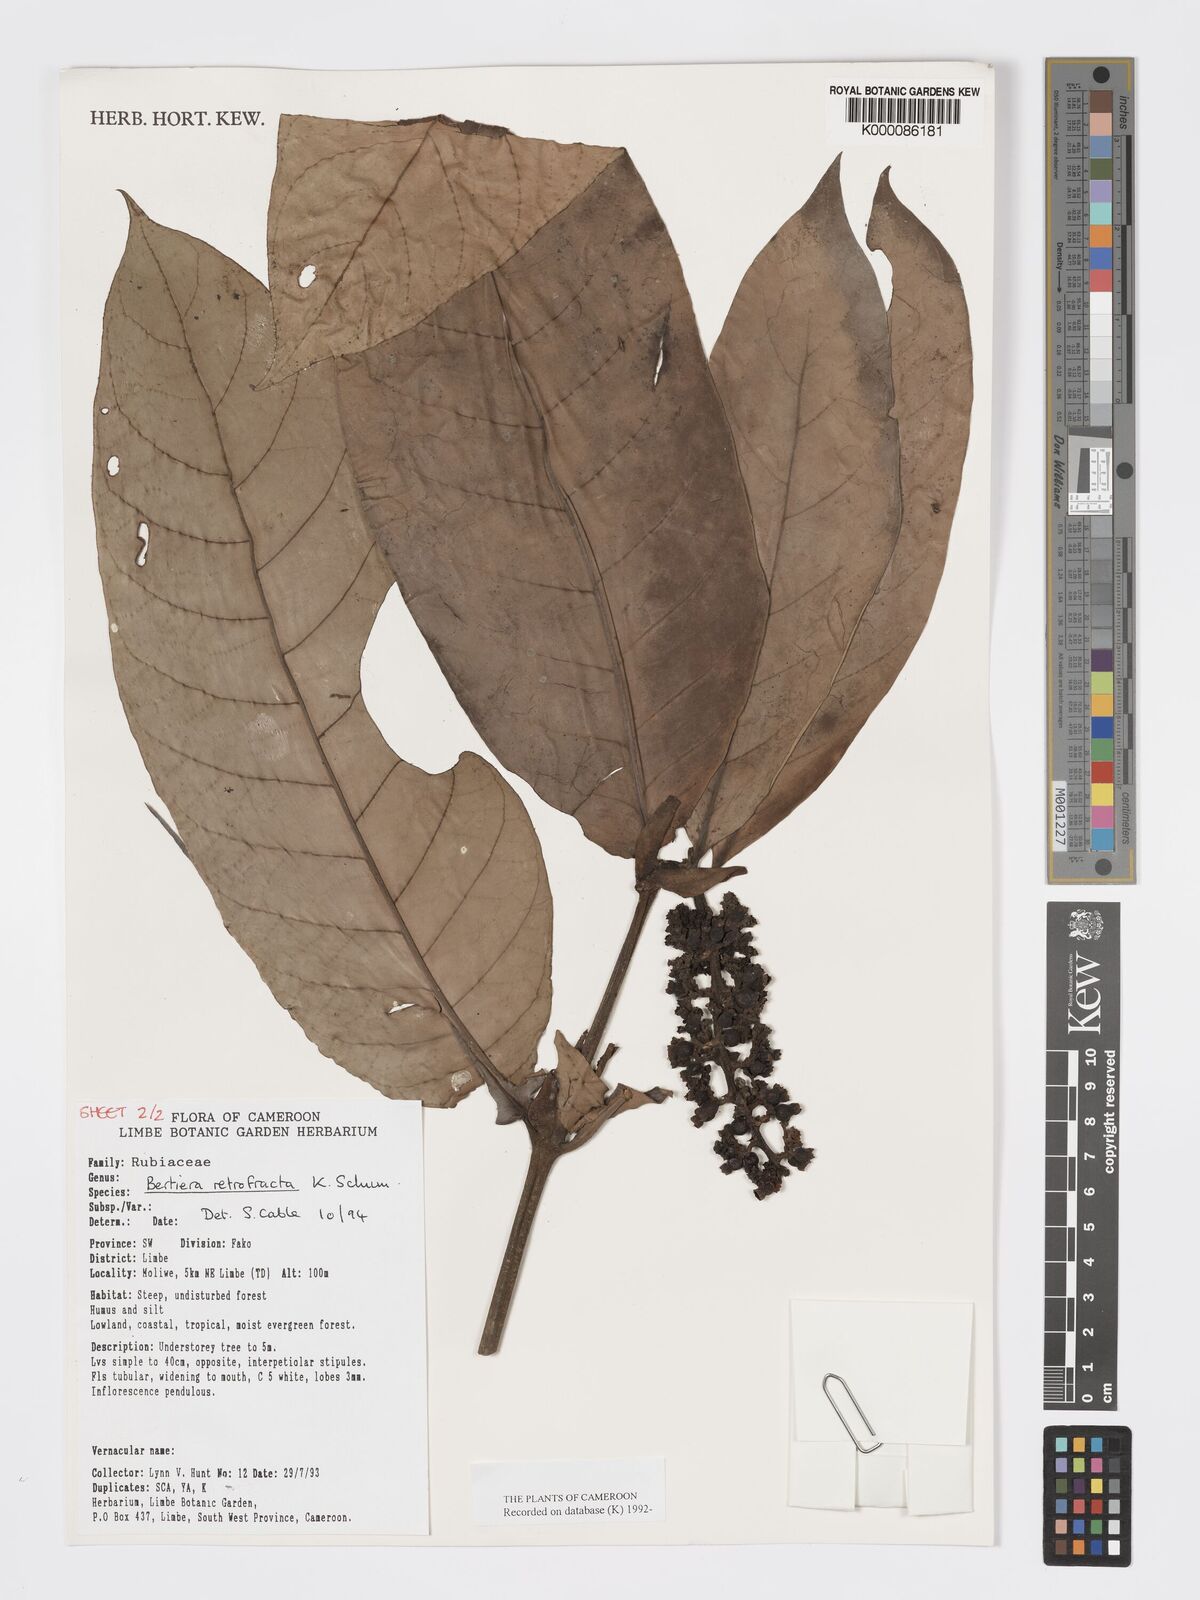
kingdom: Plantae
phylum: Tracheophyta
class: Magnoliopsida
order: Gentianales
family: Rubiaceae
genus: Bertiera
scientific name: Bertiera retrofracta
